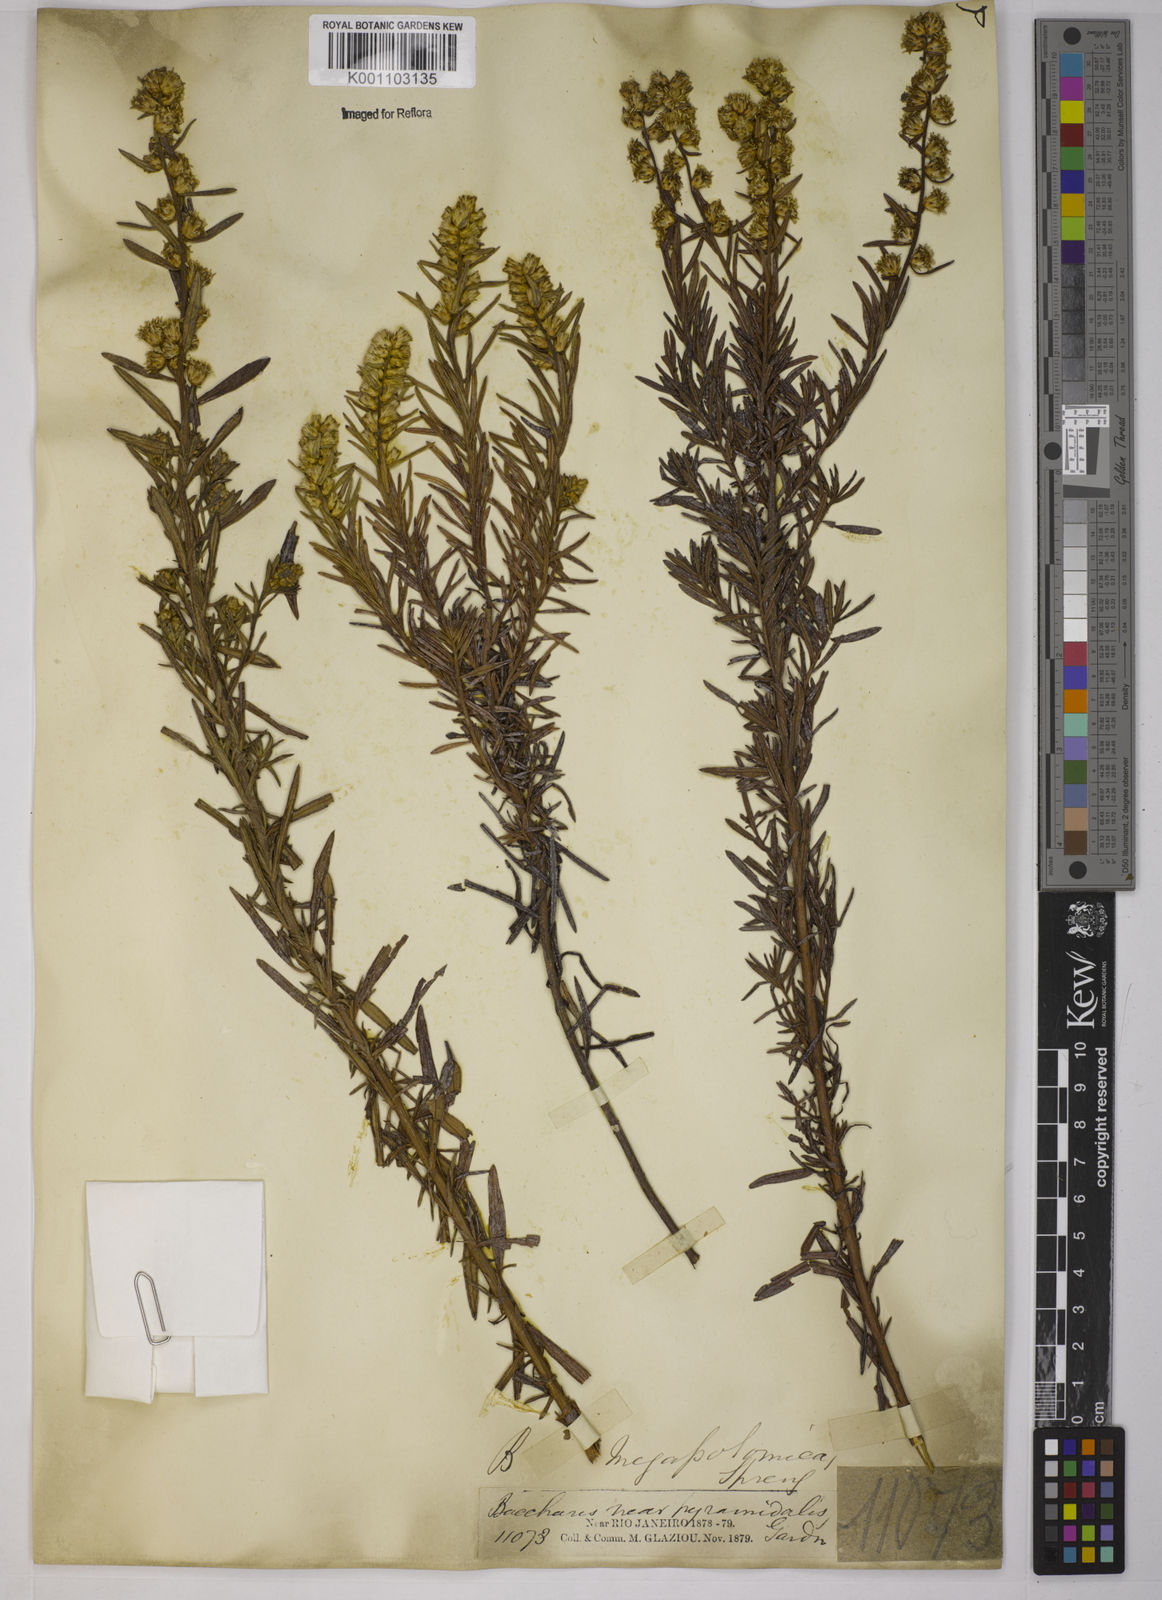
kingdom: Plantae
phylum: Tracheophyta
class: Magnoliopsida
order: Asterales
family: Asteraceae
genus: Baccharis
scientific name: Baccharis megapotamica
